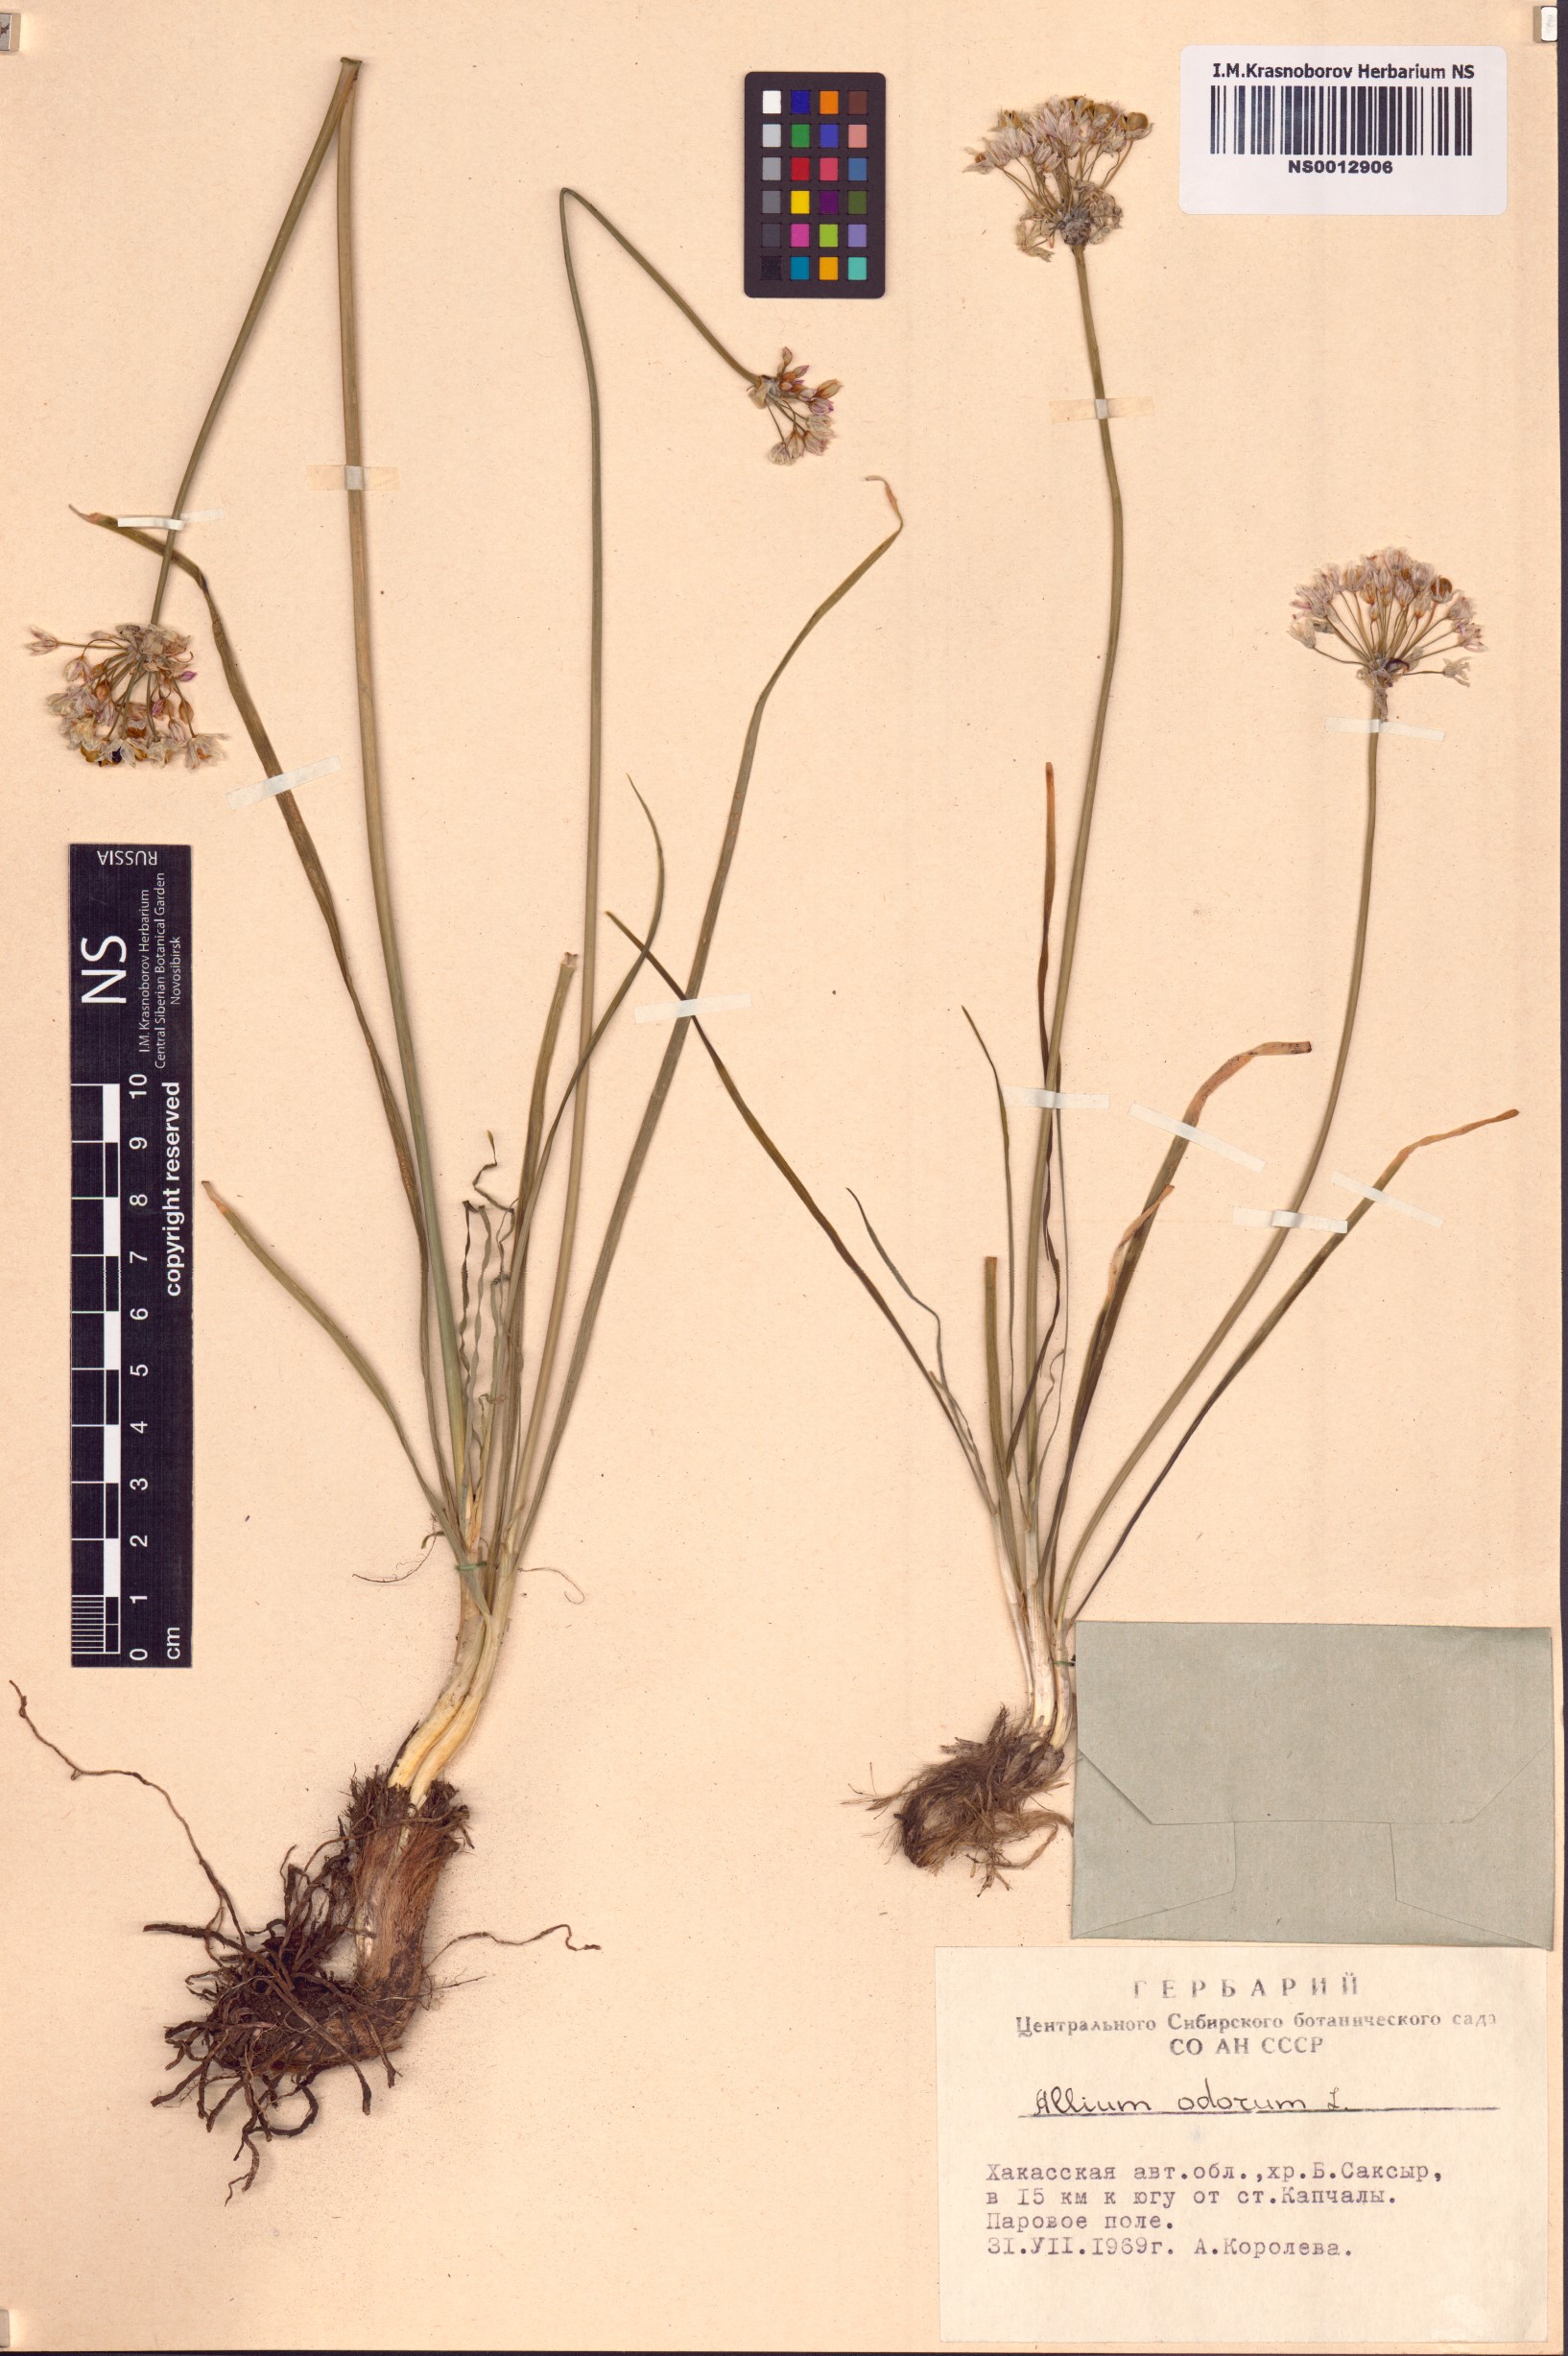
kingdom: Plantae
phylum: Tracheophyta
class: Liliopsida
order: Asparagales
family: Amaryllidaceae
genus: Allium
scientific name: Allium ramosum
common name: Fragrant garlic
